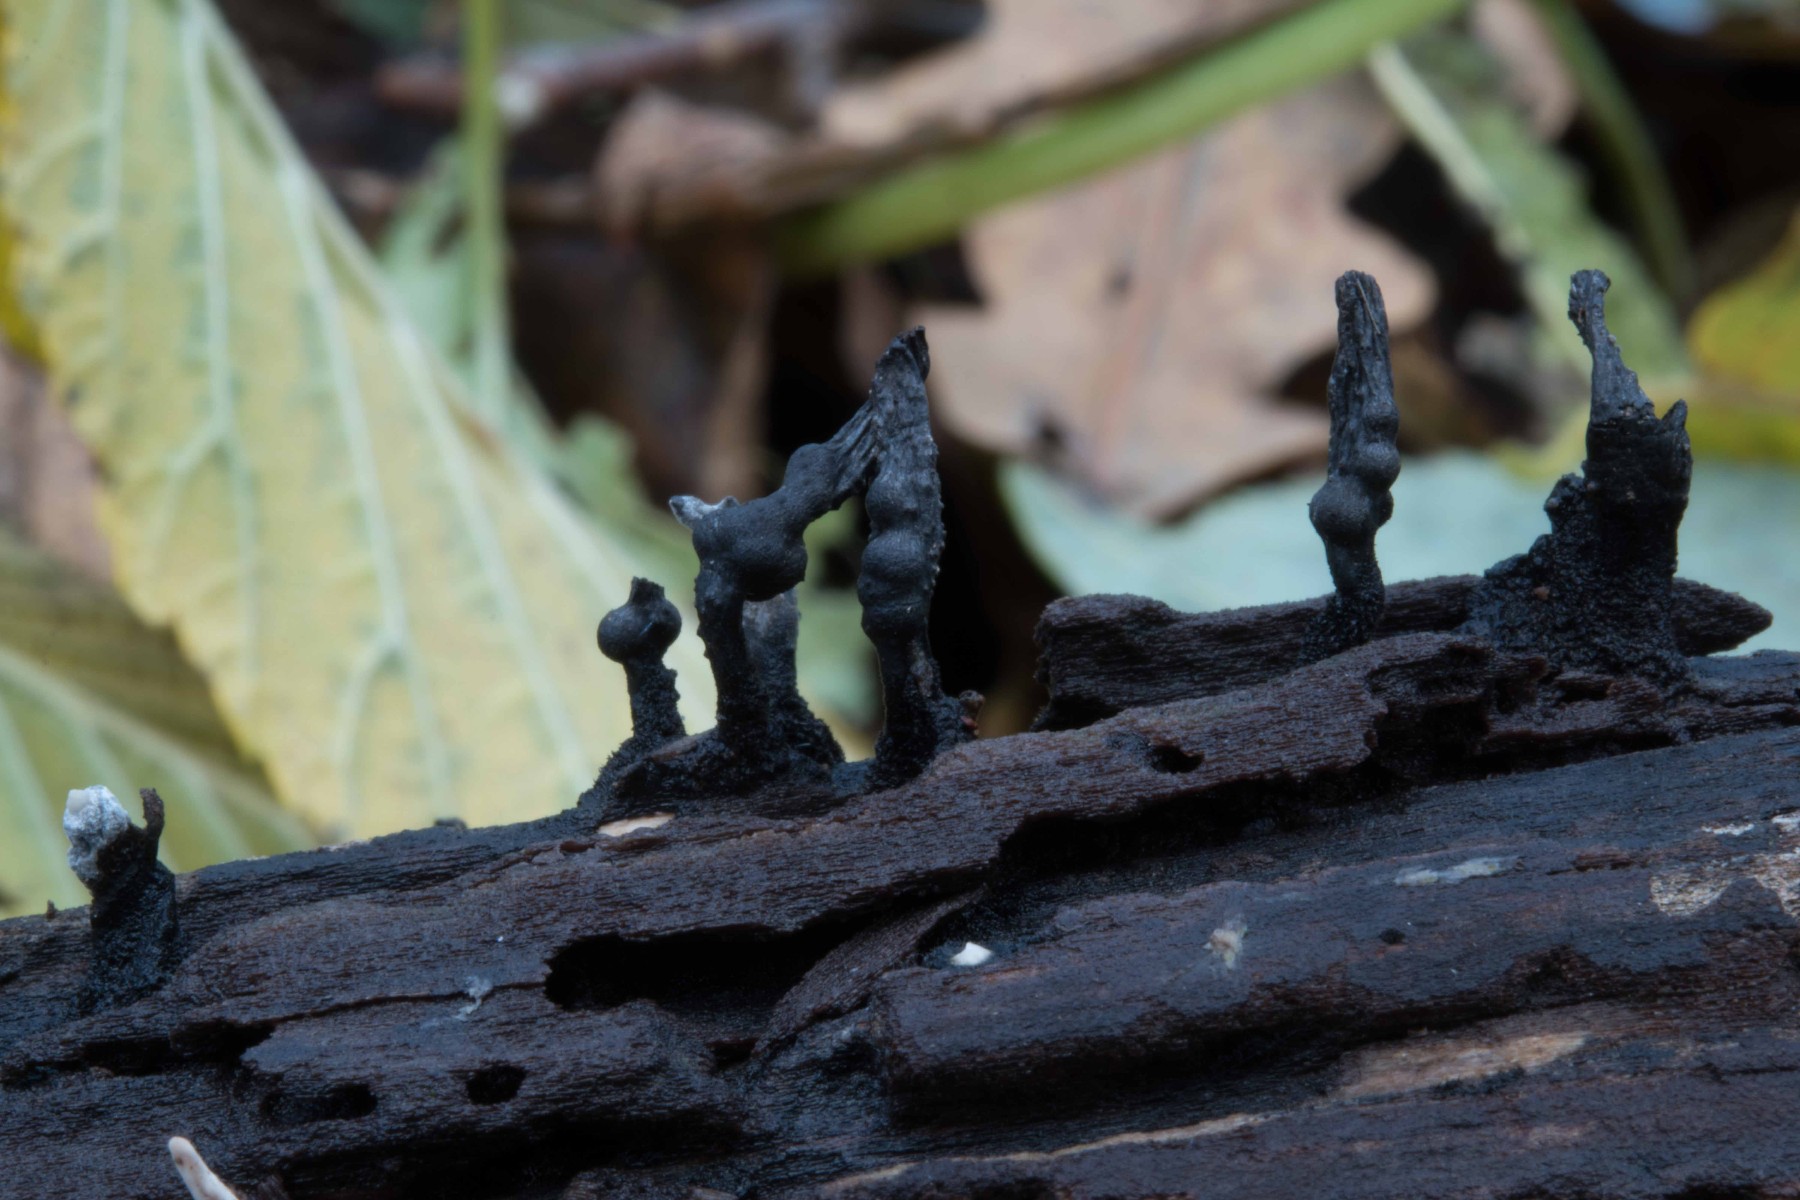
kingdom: Fungi
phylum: Ascomycota
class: Sordariomycetes
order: Xylariales
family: Xylariaceae
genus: Xylaria
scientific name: Xylaria hypoxylon
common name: grenet stødsvamp
